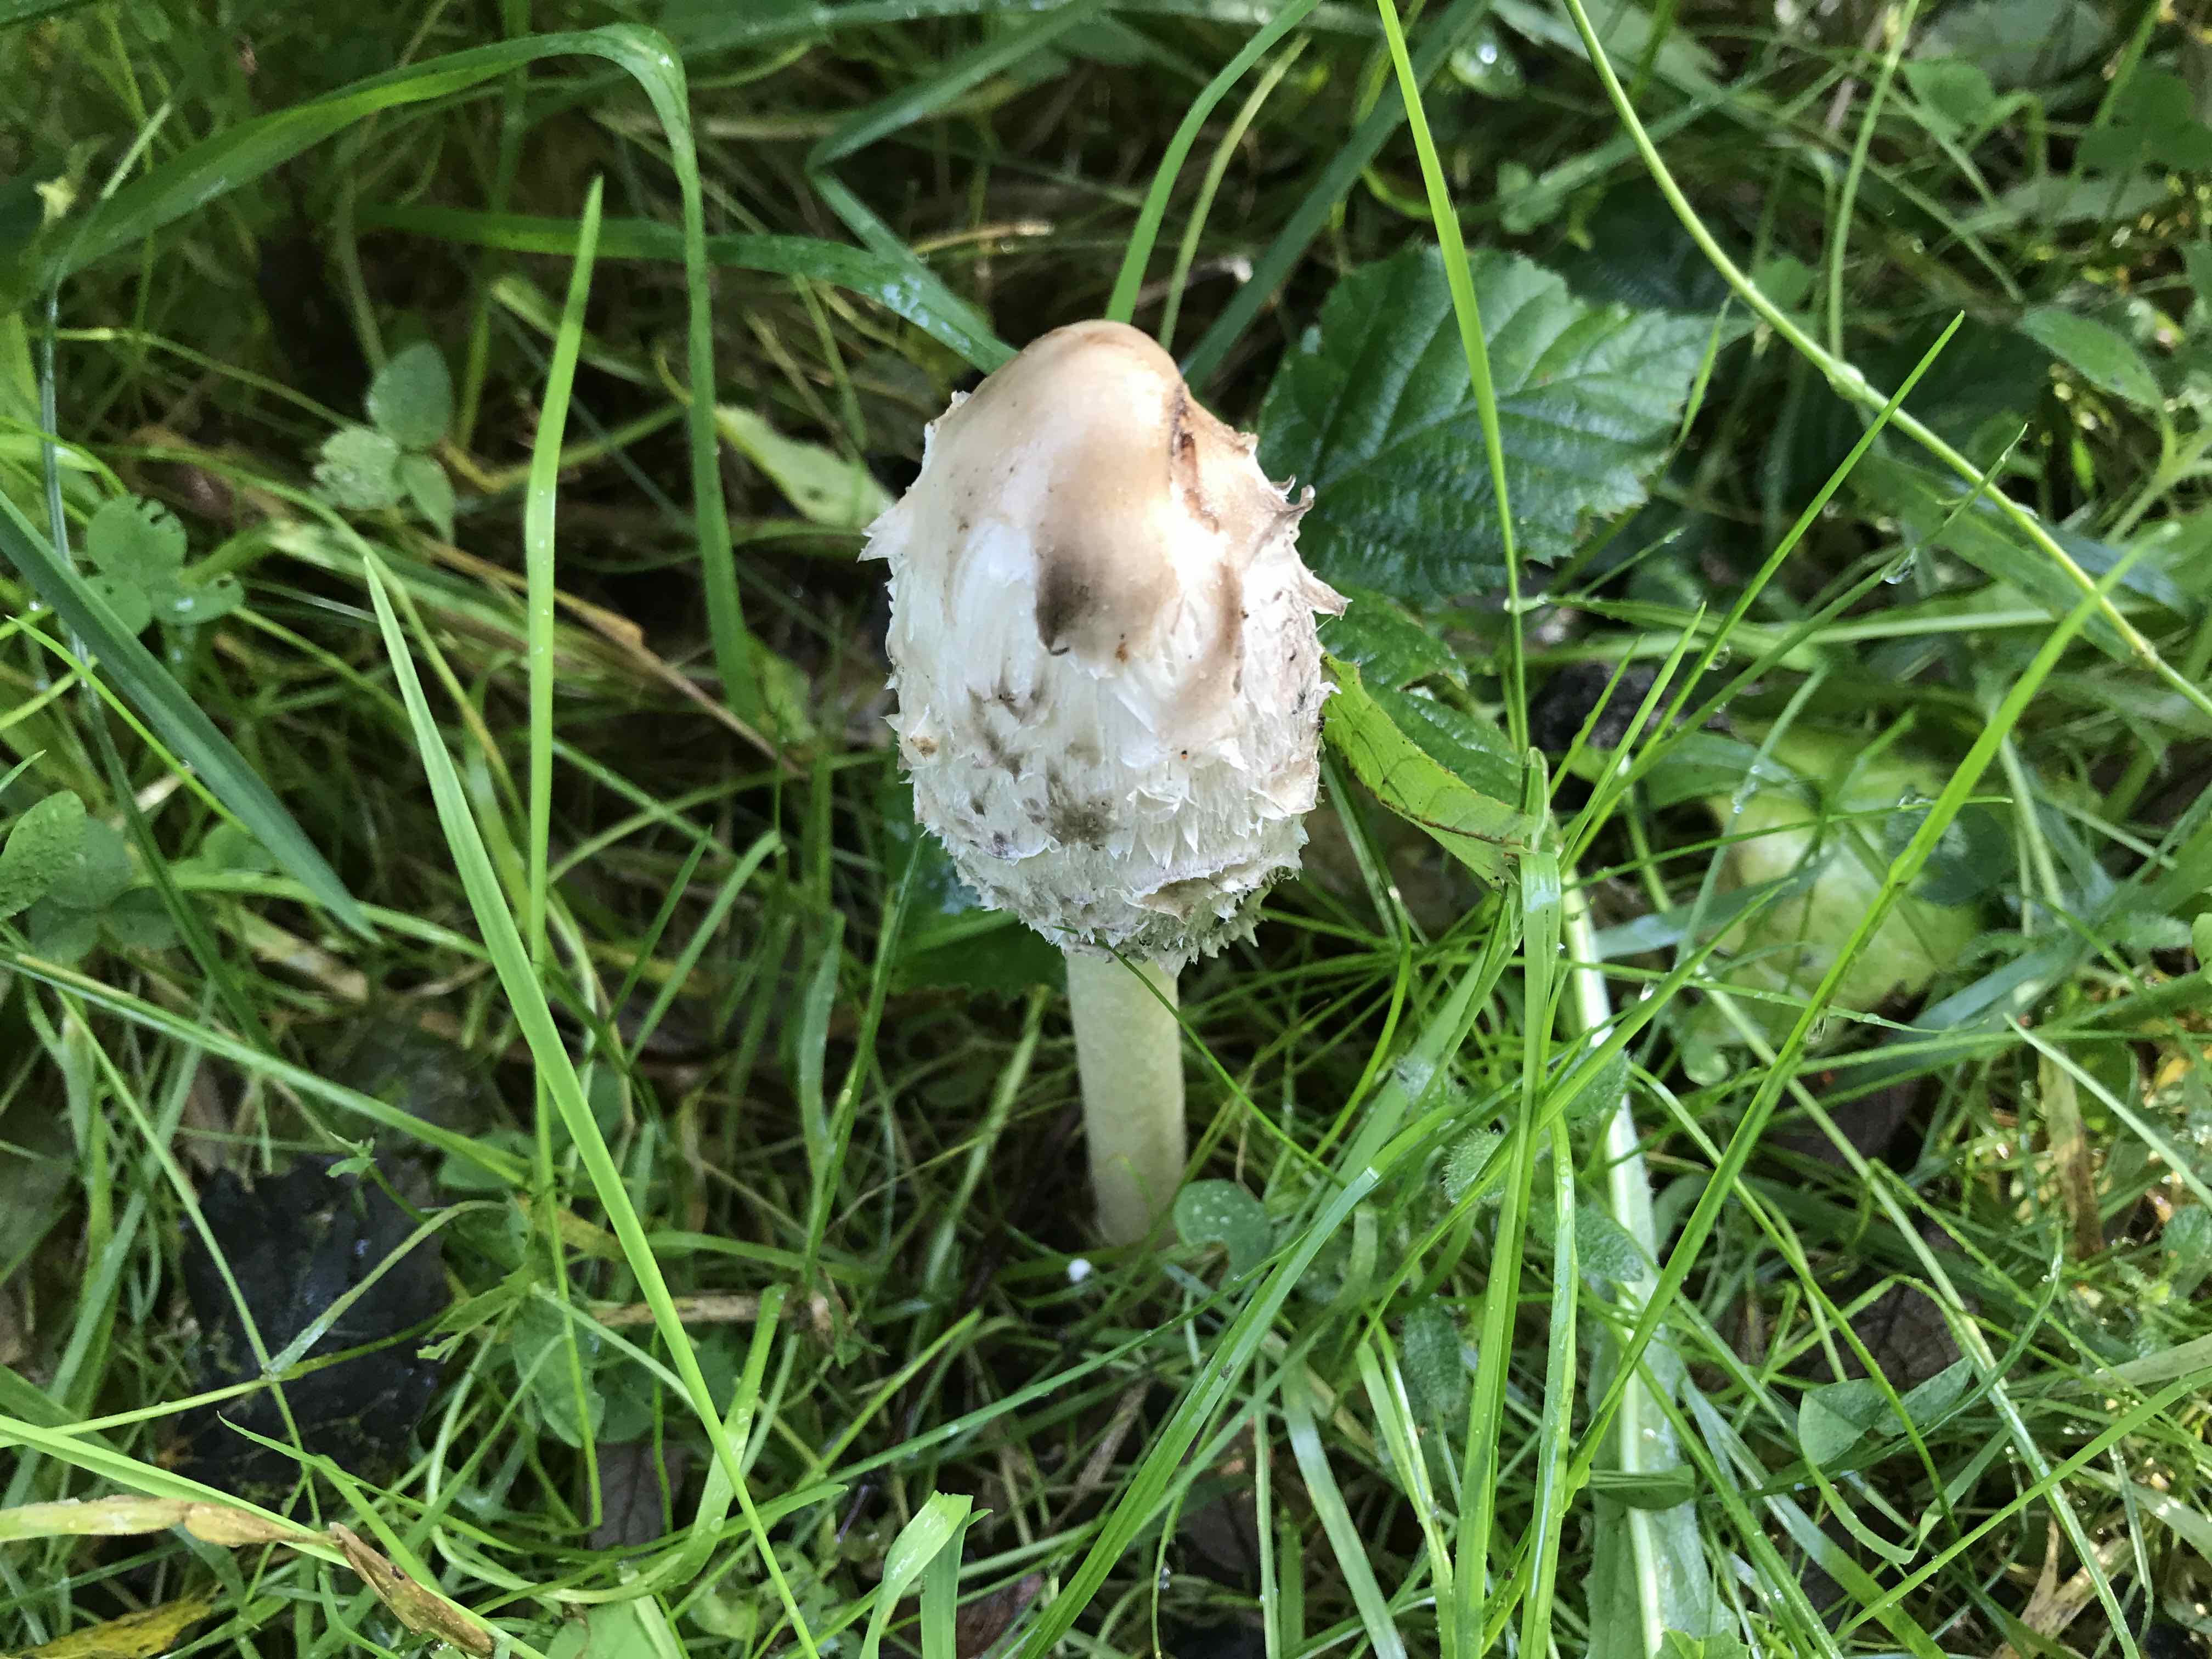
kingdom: Fungi
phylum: Basidiomycota
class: Agaricomycetes
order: Agaricales
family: Agaricaceae
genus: Coprinus
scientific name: Coprinus comatus
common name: stor parykhat
